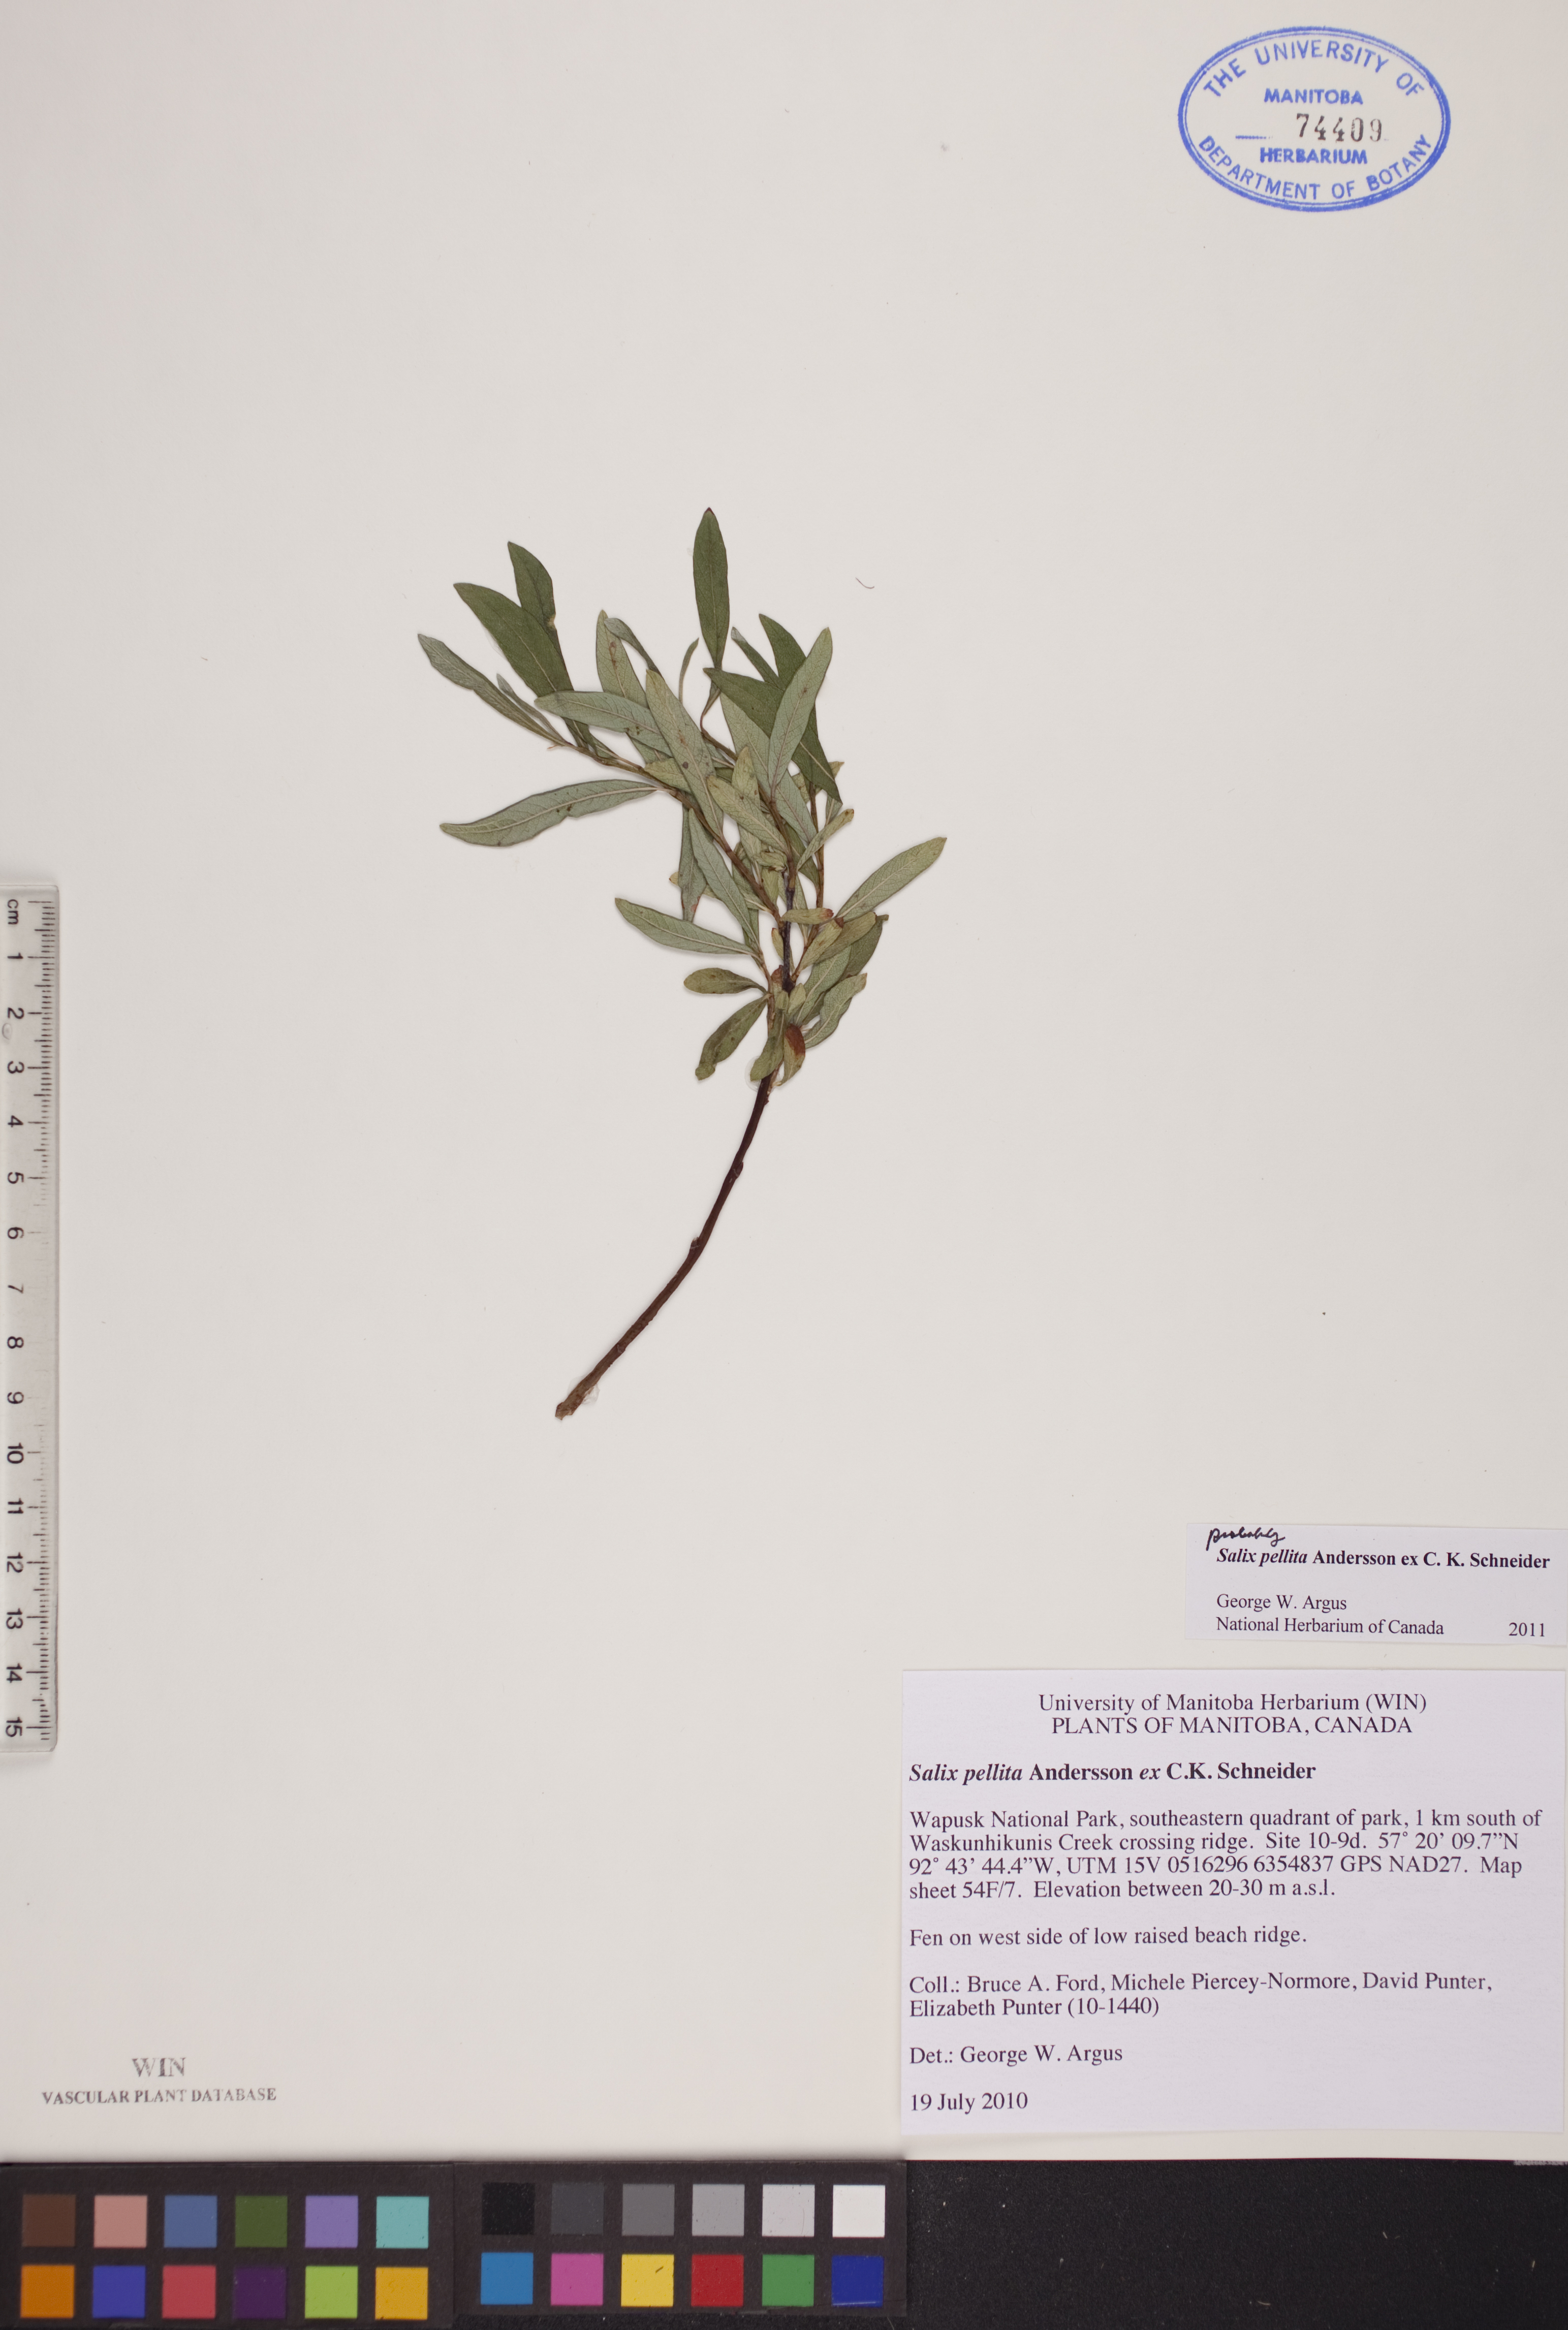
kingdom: Plantae
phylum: Tracheophyta
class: Magnoliopsida
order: Malpighiales
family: Salicaceae
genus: Salix
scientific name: Salix pellita
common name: Satiny willow
